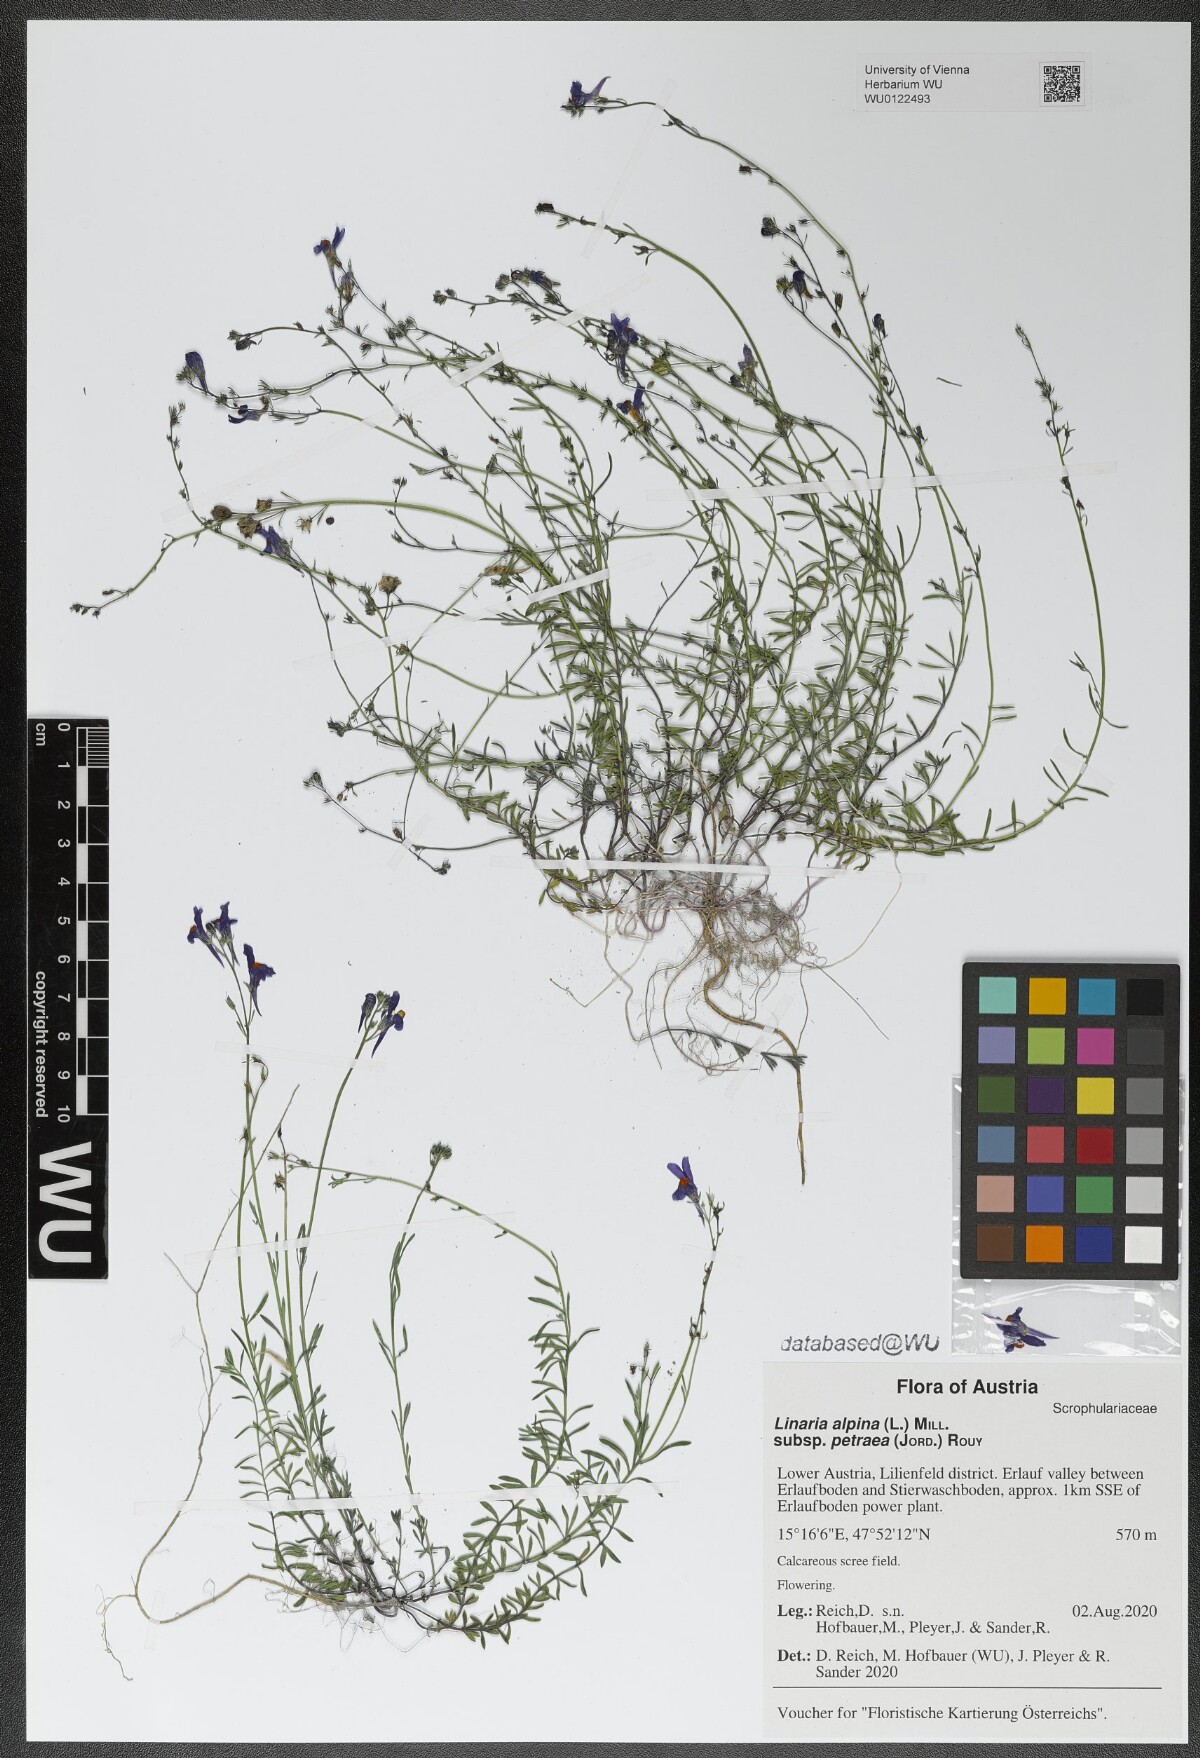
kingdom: Plantae
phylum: Tracheophyta
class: Magnoliopsida
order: Lamiales
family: Plantaginaceae
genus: Linaria
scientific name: Linaria alpina
